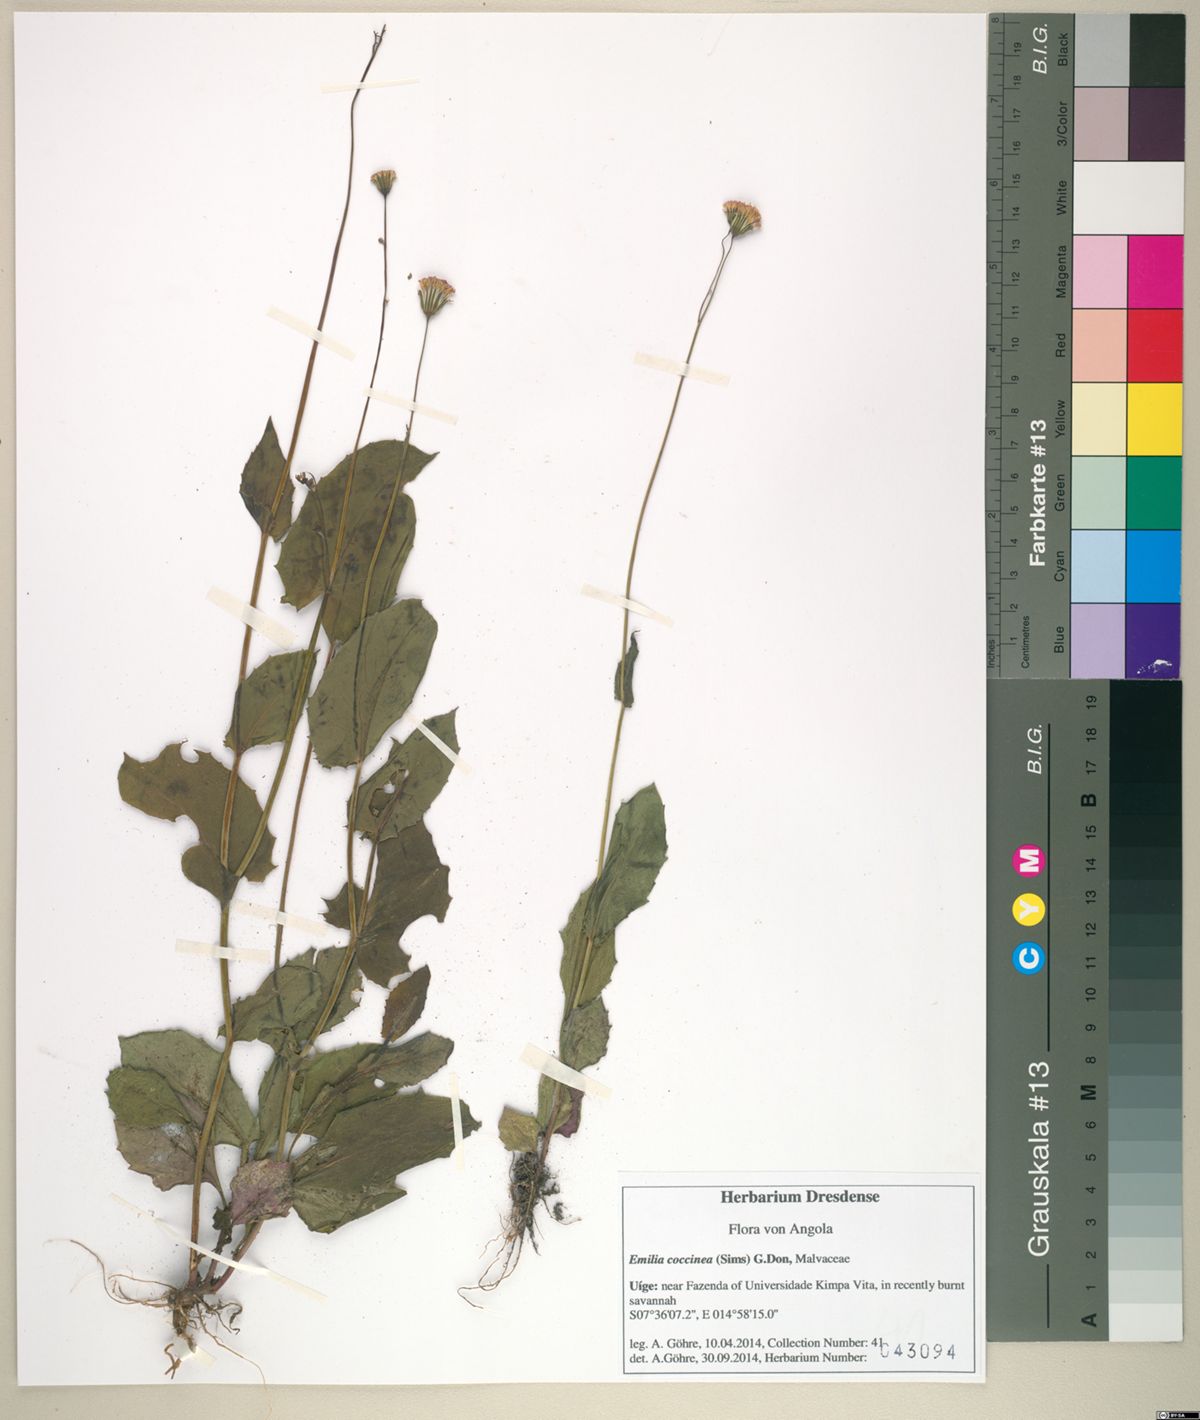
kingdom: Plantae
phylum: Tracheophyta
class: Magnoliopsida
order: Asterales
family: Asteraceae
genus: Emilia
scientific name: Emilia coccinea
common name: Scarlet tasselflower
